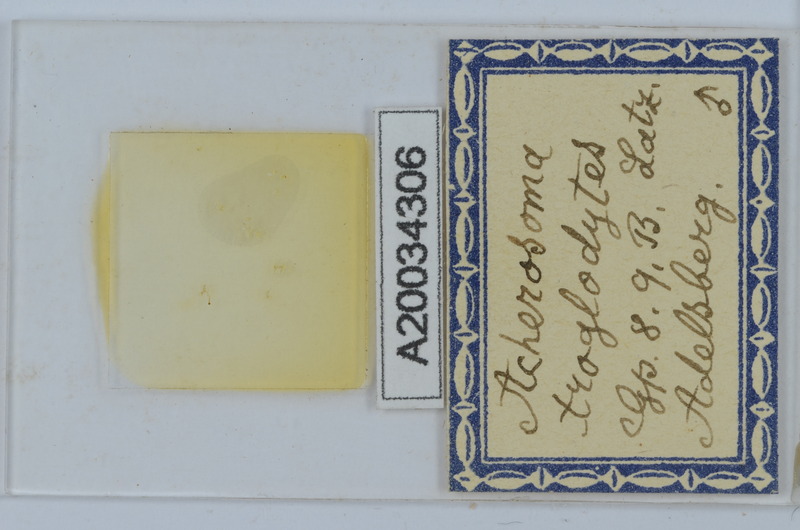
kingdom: Animalia
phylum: Arthropoda
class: Diplopoda
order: Chordeumatida
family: Anthogonidae
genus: Haasia
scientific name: Haasia troglodytes
